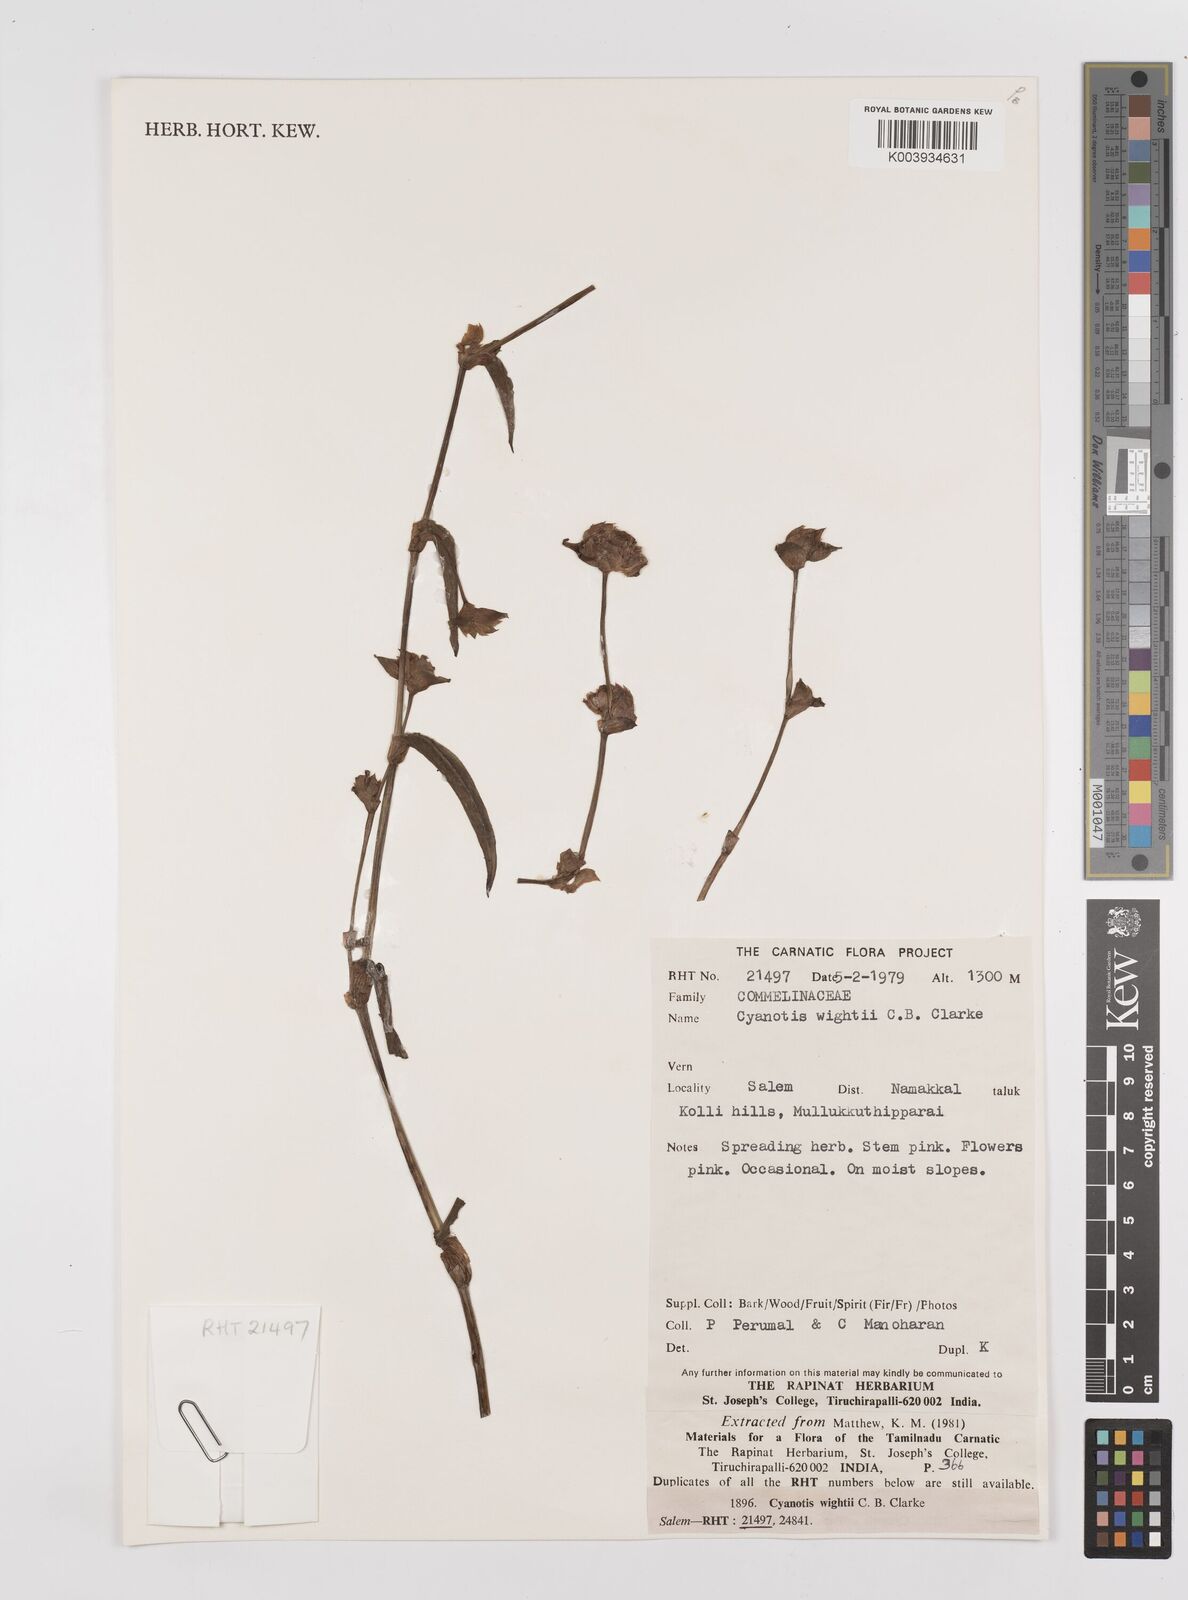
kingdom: Plantae
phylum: Tracheophyta
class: Liliopsida
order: Commelinales
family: Commelinaceae
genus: Cyanotis
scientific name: Cyanotis pilosa
